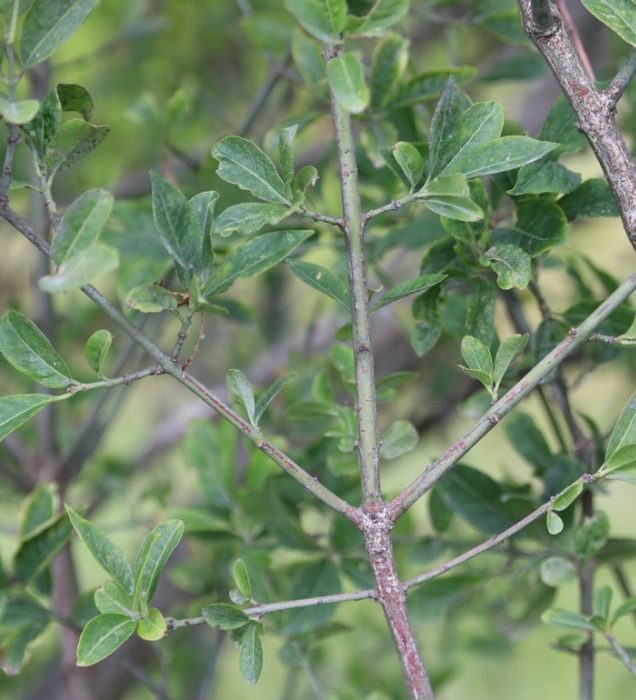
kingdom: Plantae
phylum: Tracheophyta
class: Magnoliopsida
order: Celastrales
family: Celastraceae
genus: Euonymus
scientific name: Euonymus europaeus
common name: Benved
